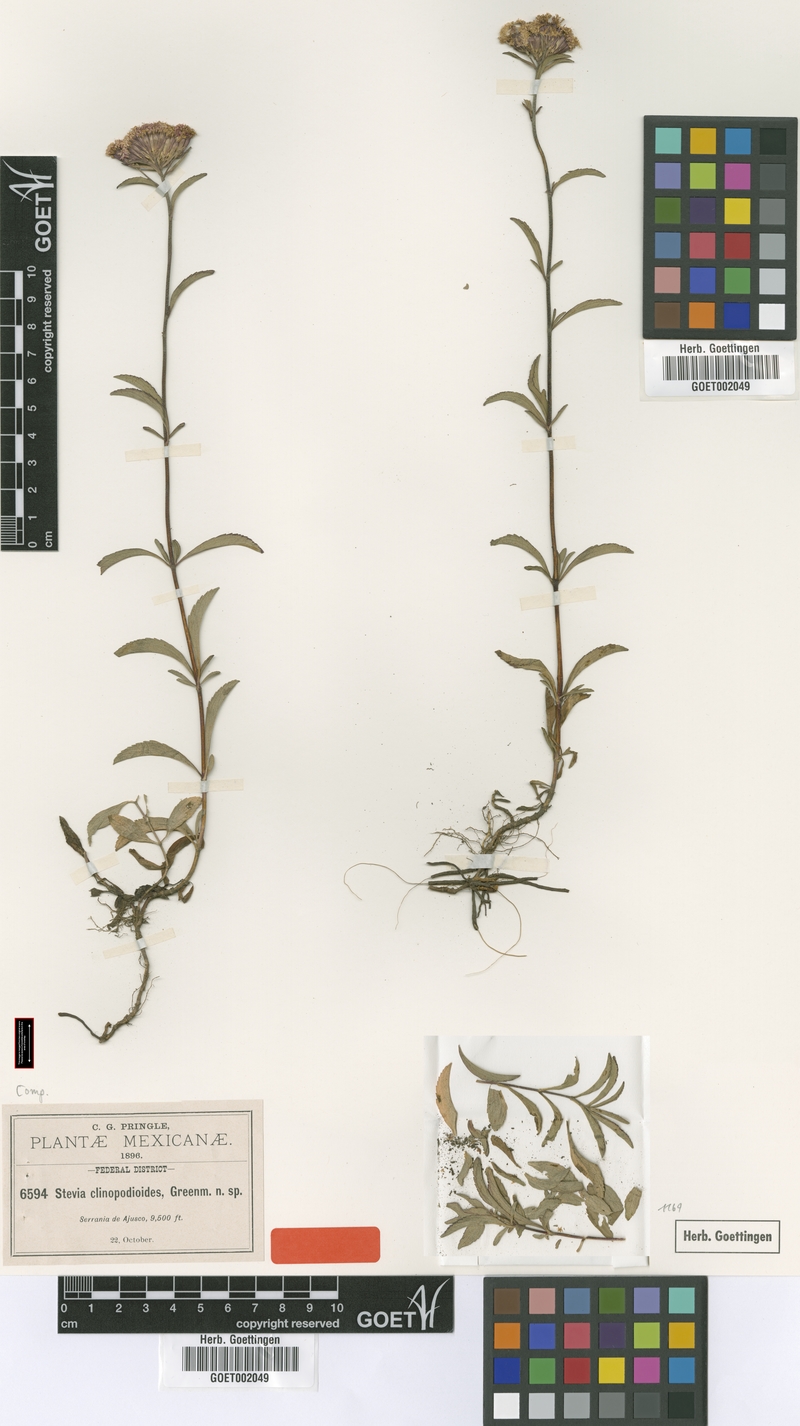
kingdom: Plantae
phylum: Tracheophyta
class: Magnoliopsida
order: Asterales
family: Asteraceae
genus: Stevia
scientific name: Stevia clinopodioides
